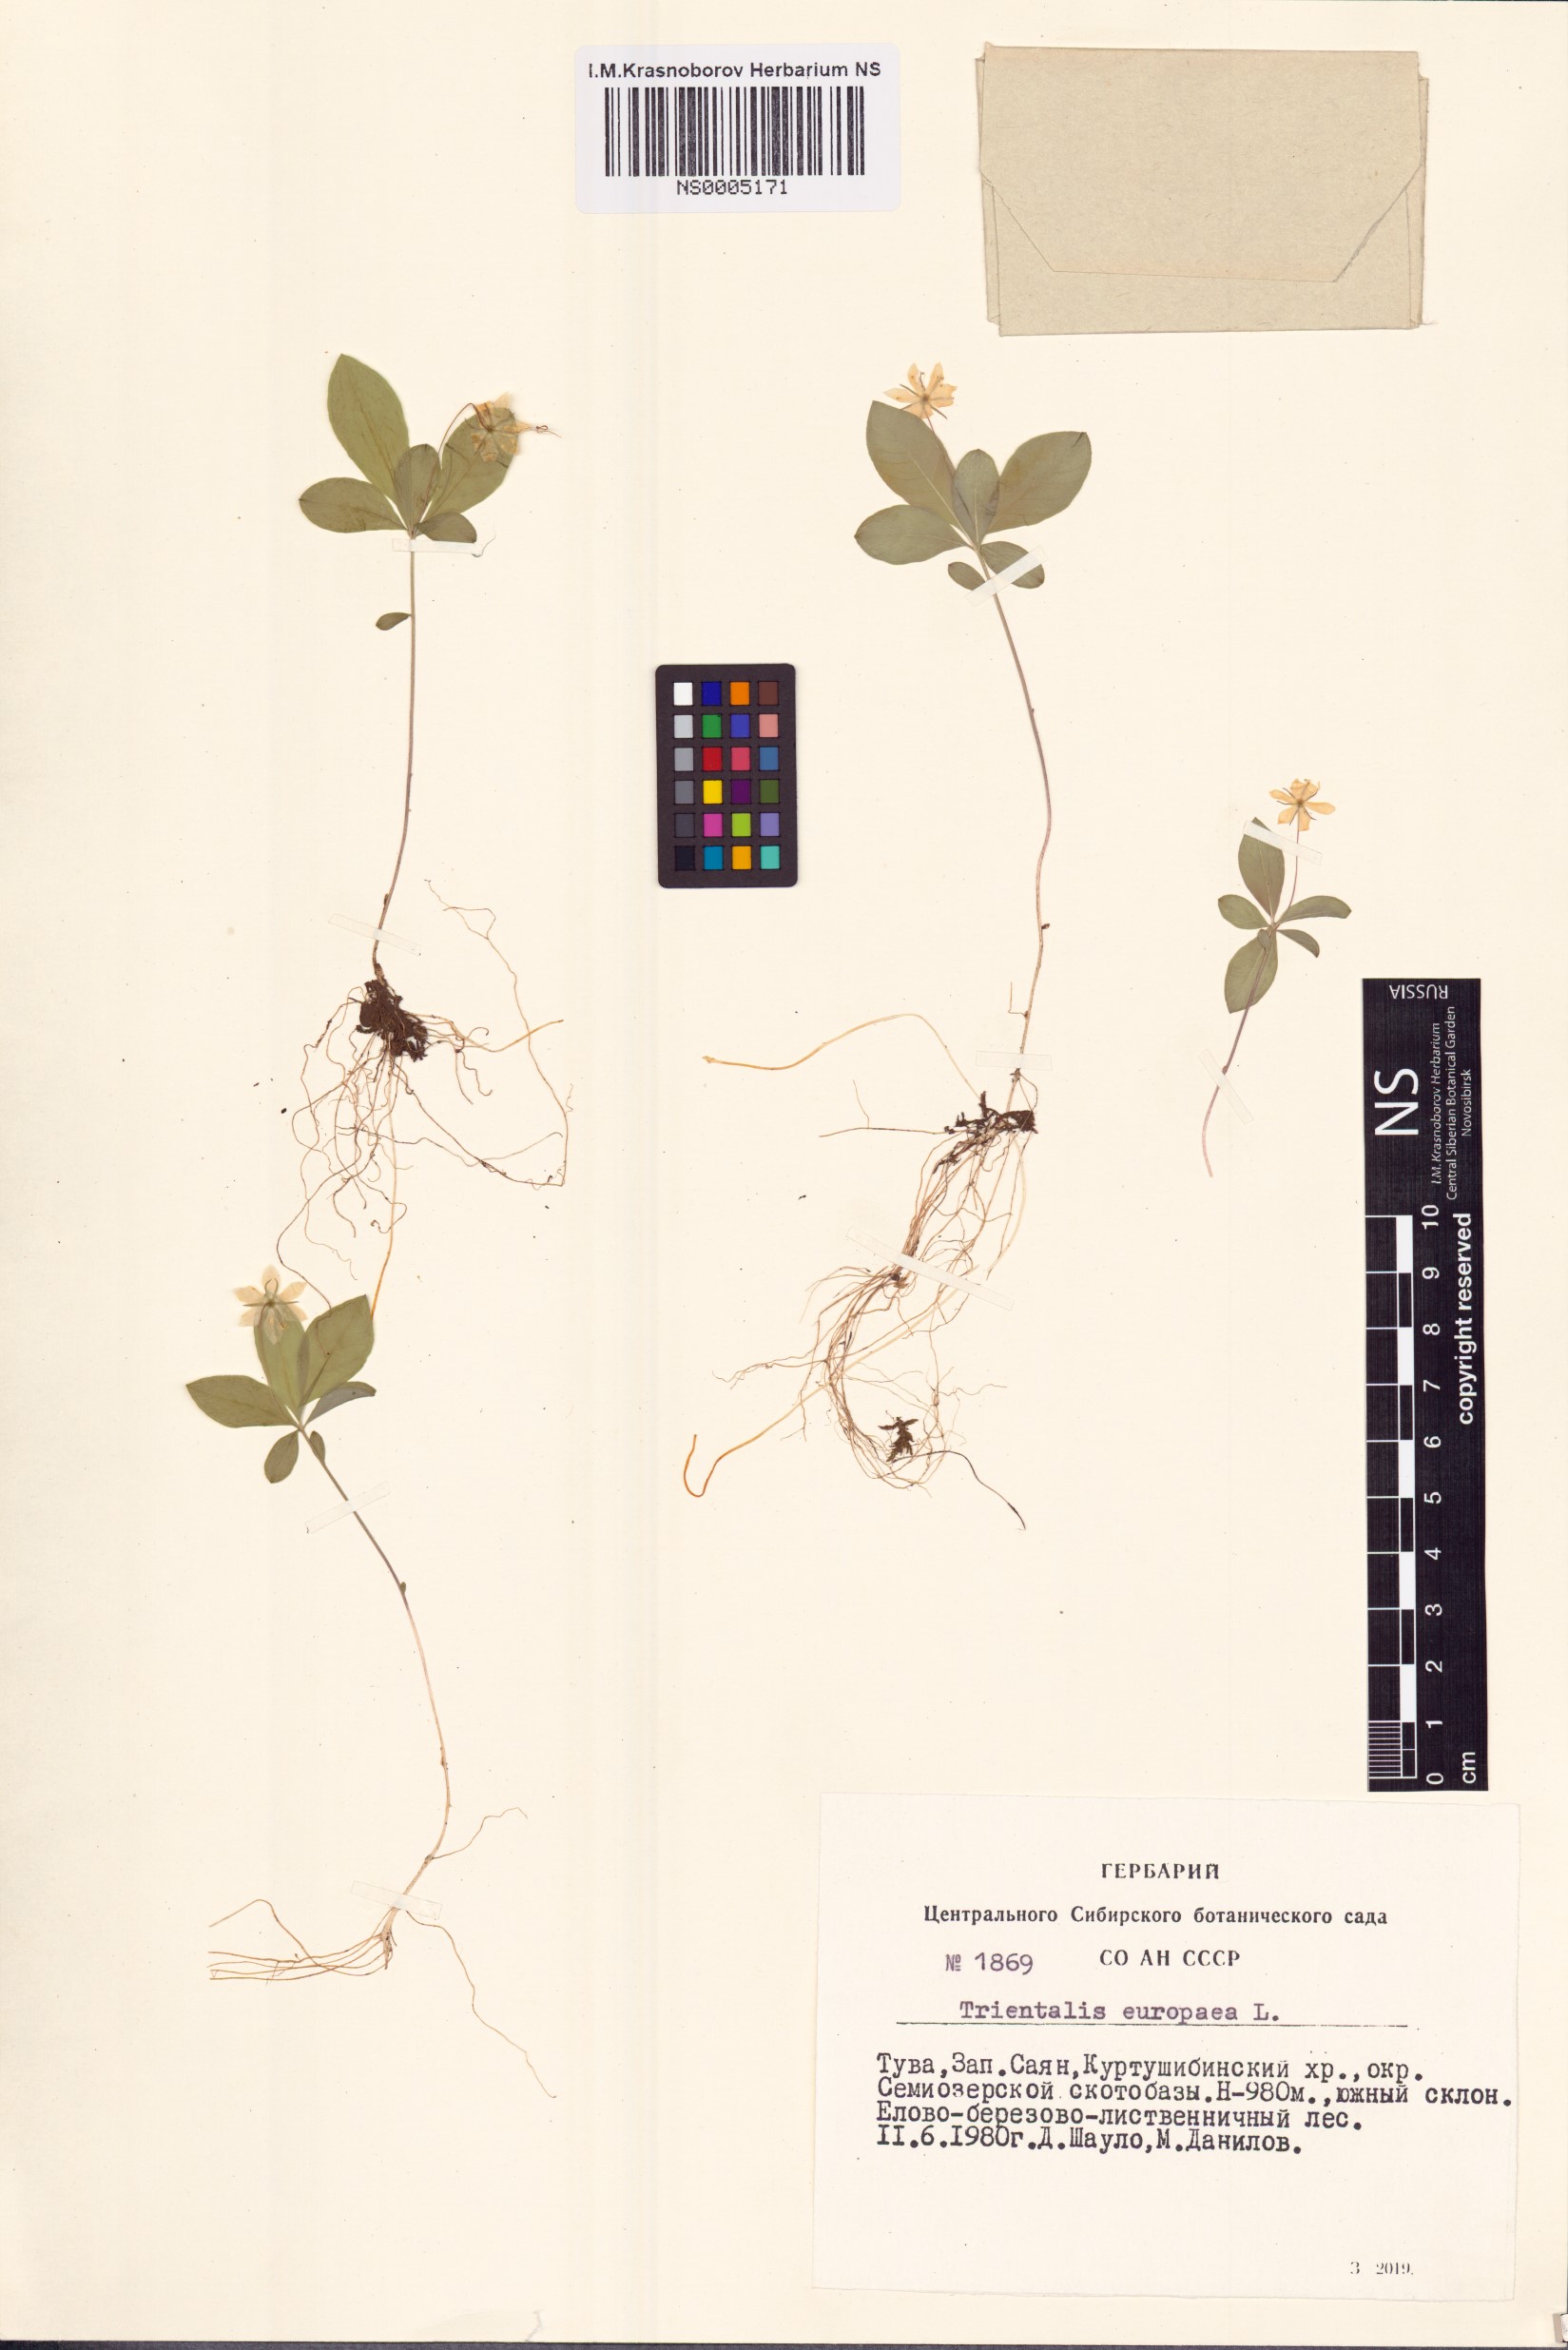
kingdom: Plantae
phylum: Tracheophyta
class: Magnoliopsida
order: Ericales
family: Primulaceae
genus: Lysimachia
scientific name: Lysimachia europaea
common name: Arctic starflower
